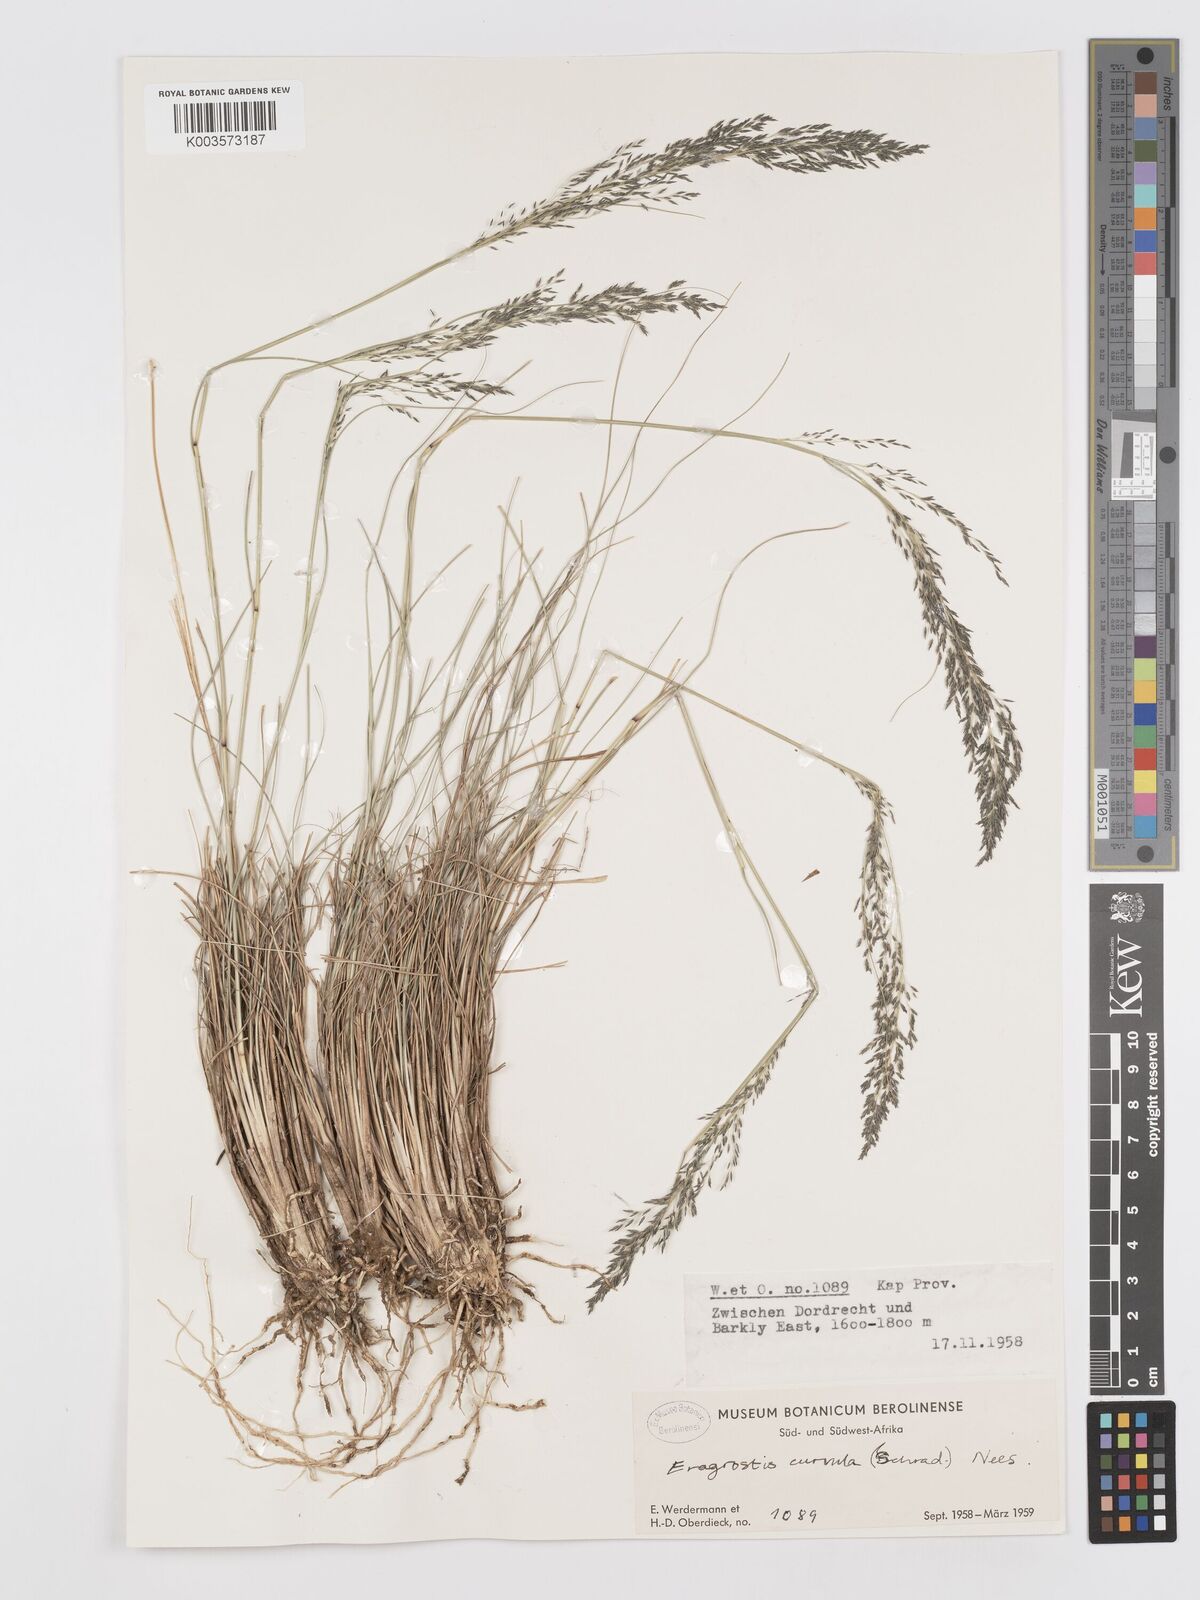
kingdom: Plantae
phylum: Tracheophyta
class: Liliopsida
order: Poales
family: Poaceae
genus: Eragrostis
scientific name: Eragrostis curvula
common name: African love-grass
